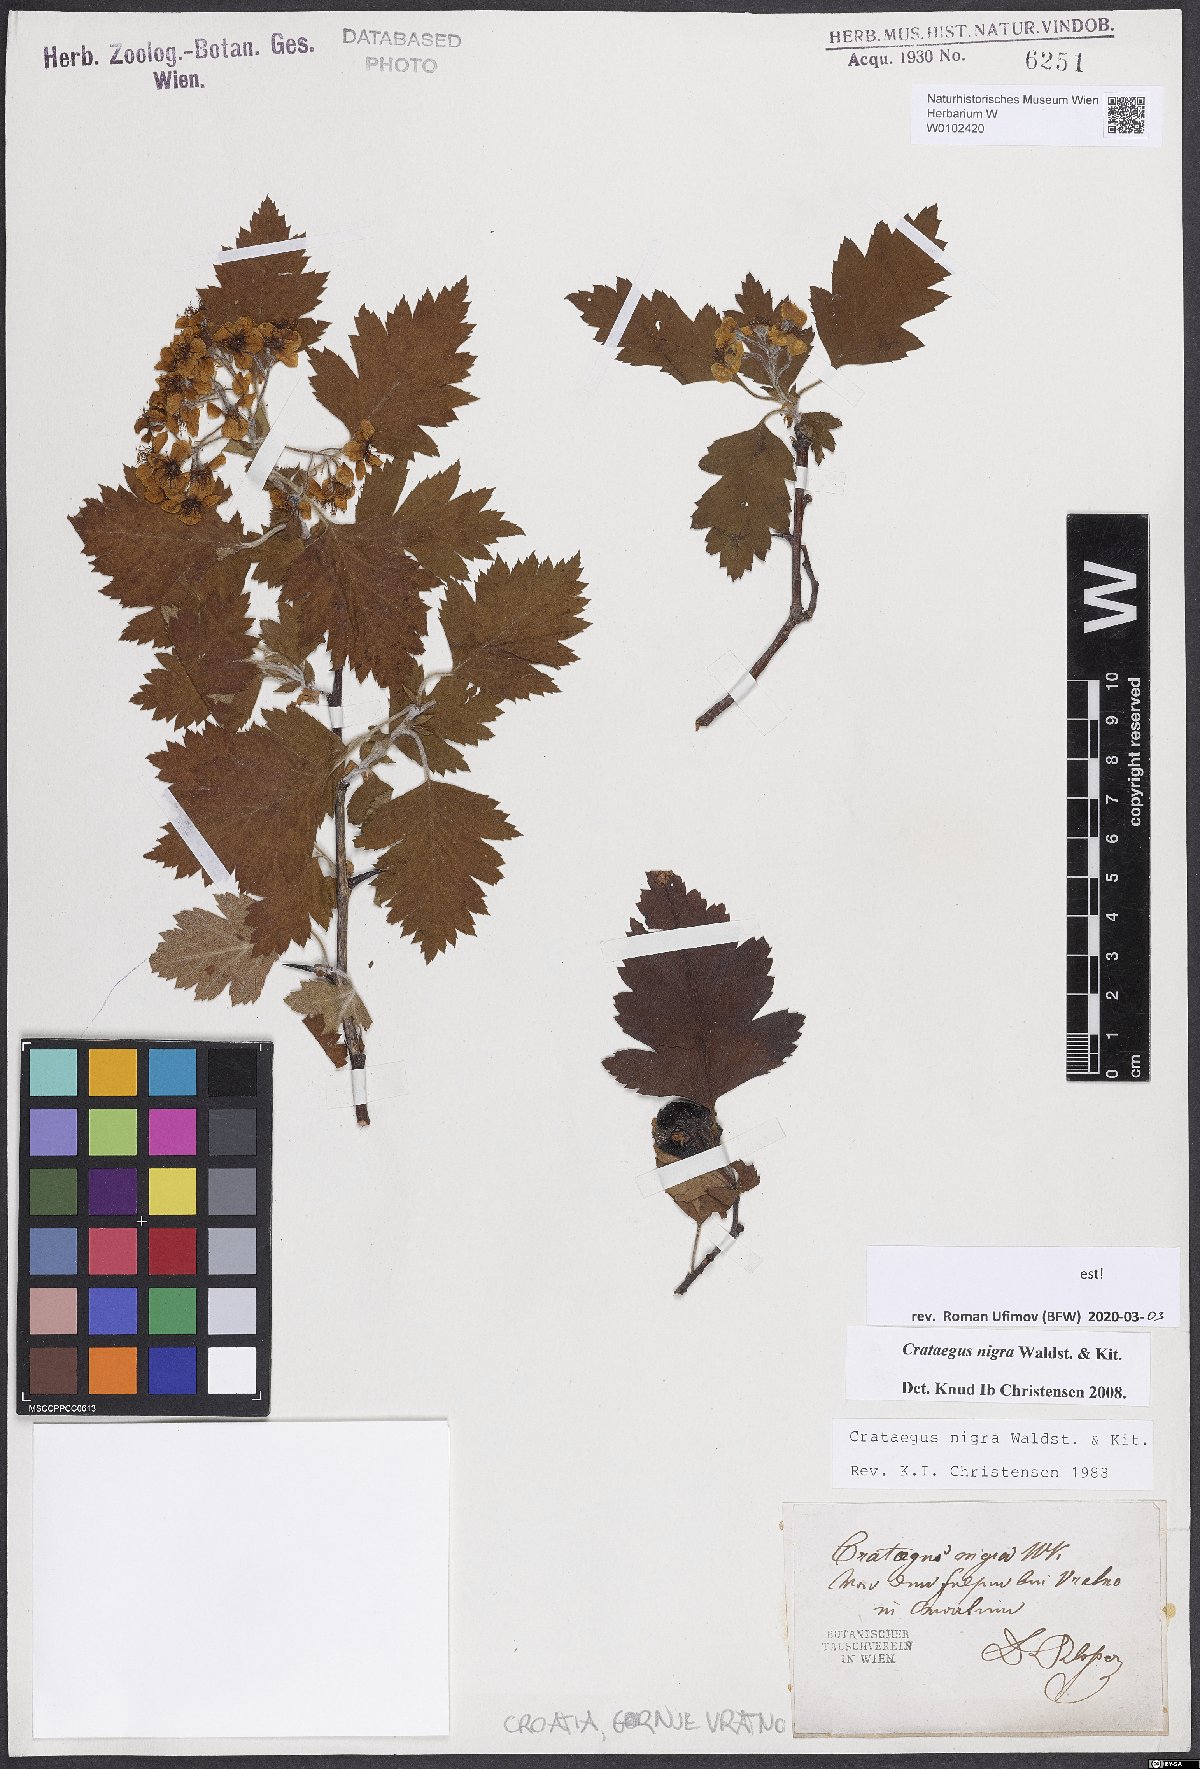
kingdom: Plantae
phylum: Tracheophyta
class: Magnoliopsida
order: Rosales
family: Rosaceae
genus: Crataegus
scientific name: Crataegus nigra
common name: Hungarian thorn
